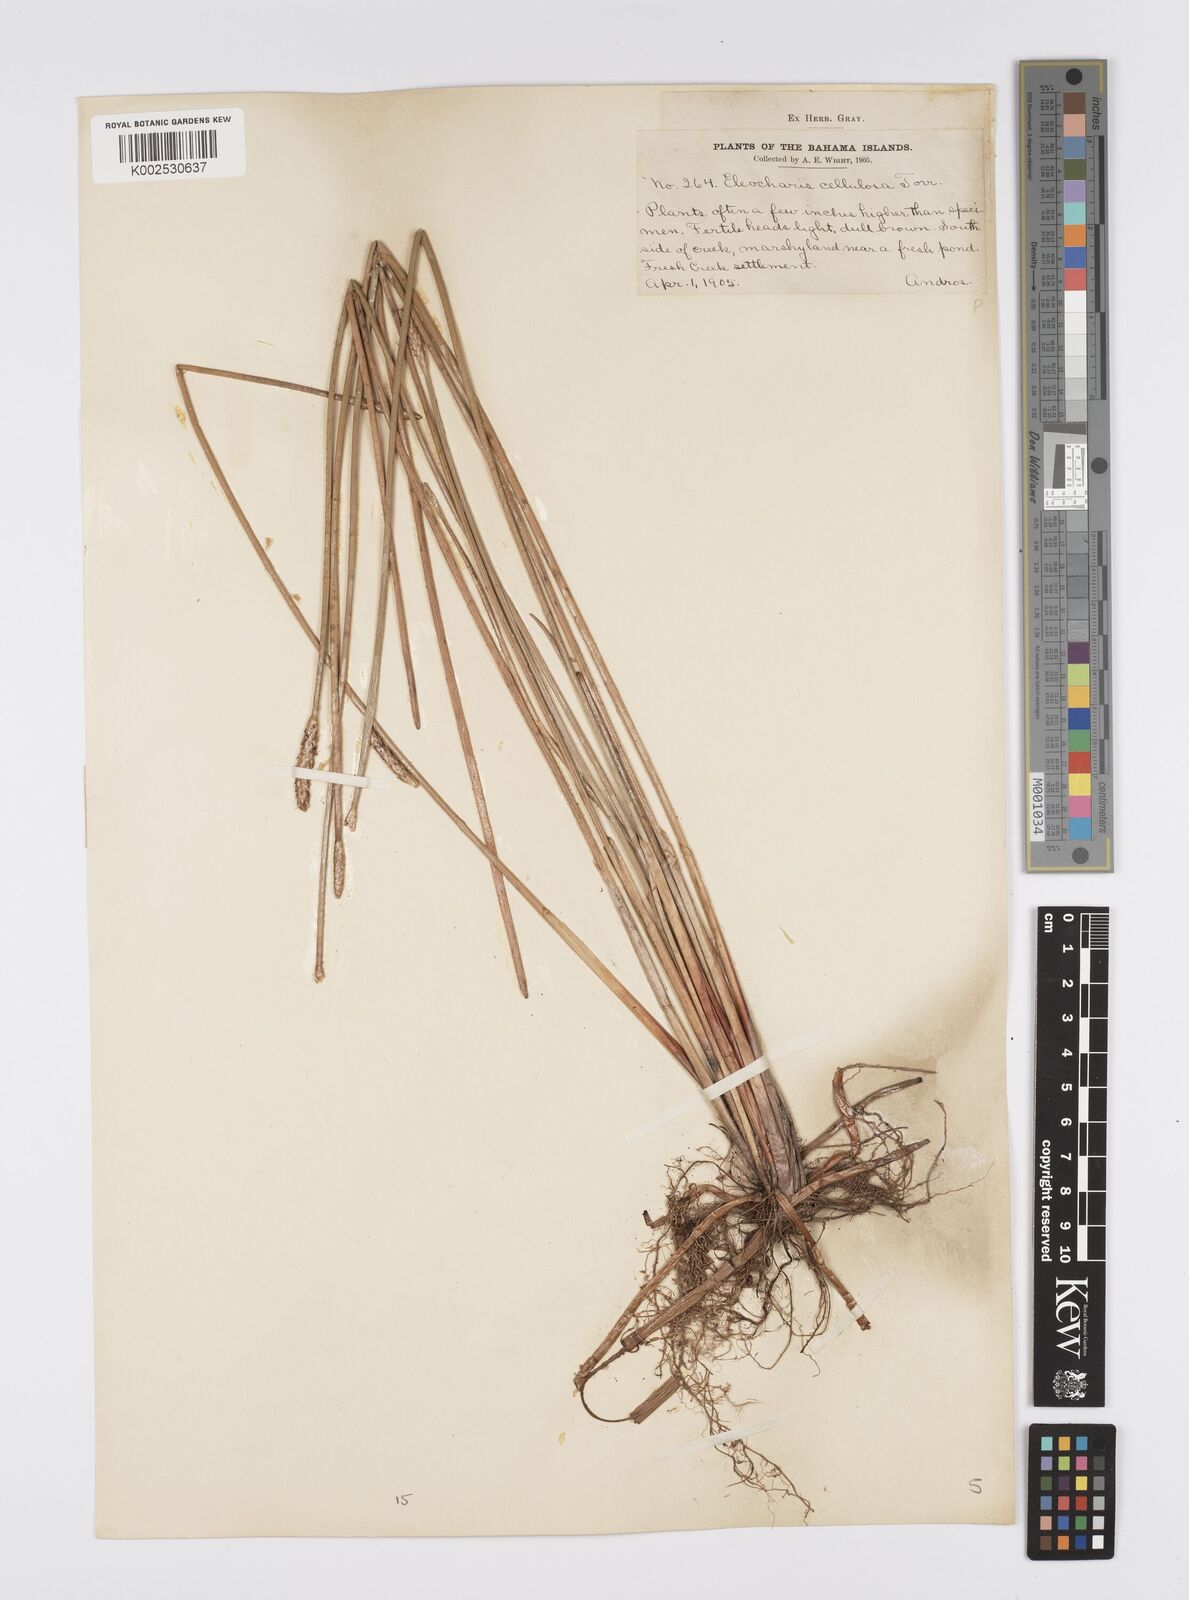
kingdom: Plantae
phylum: Tracheophyta
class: Liliopsida
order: Poales
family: Cyperaceae
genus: Eleocharis
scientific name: Eleocharis erhaiensis
